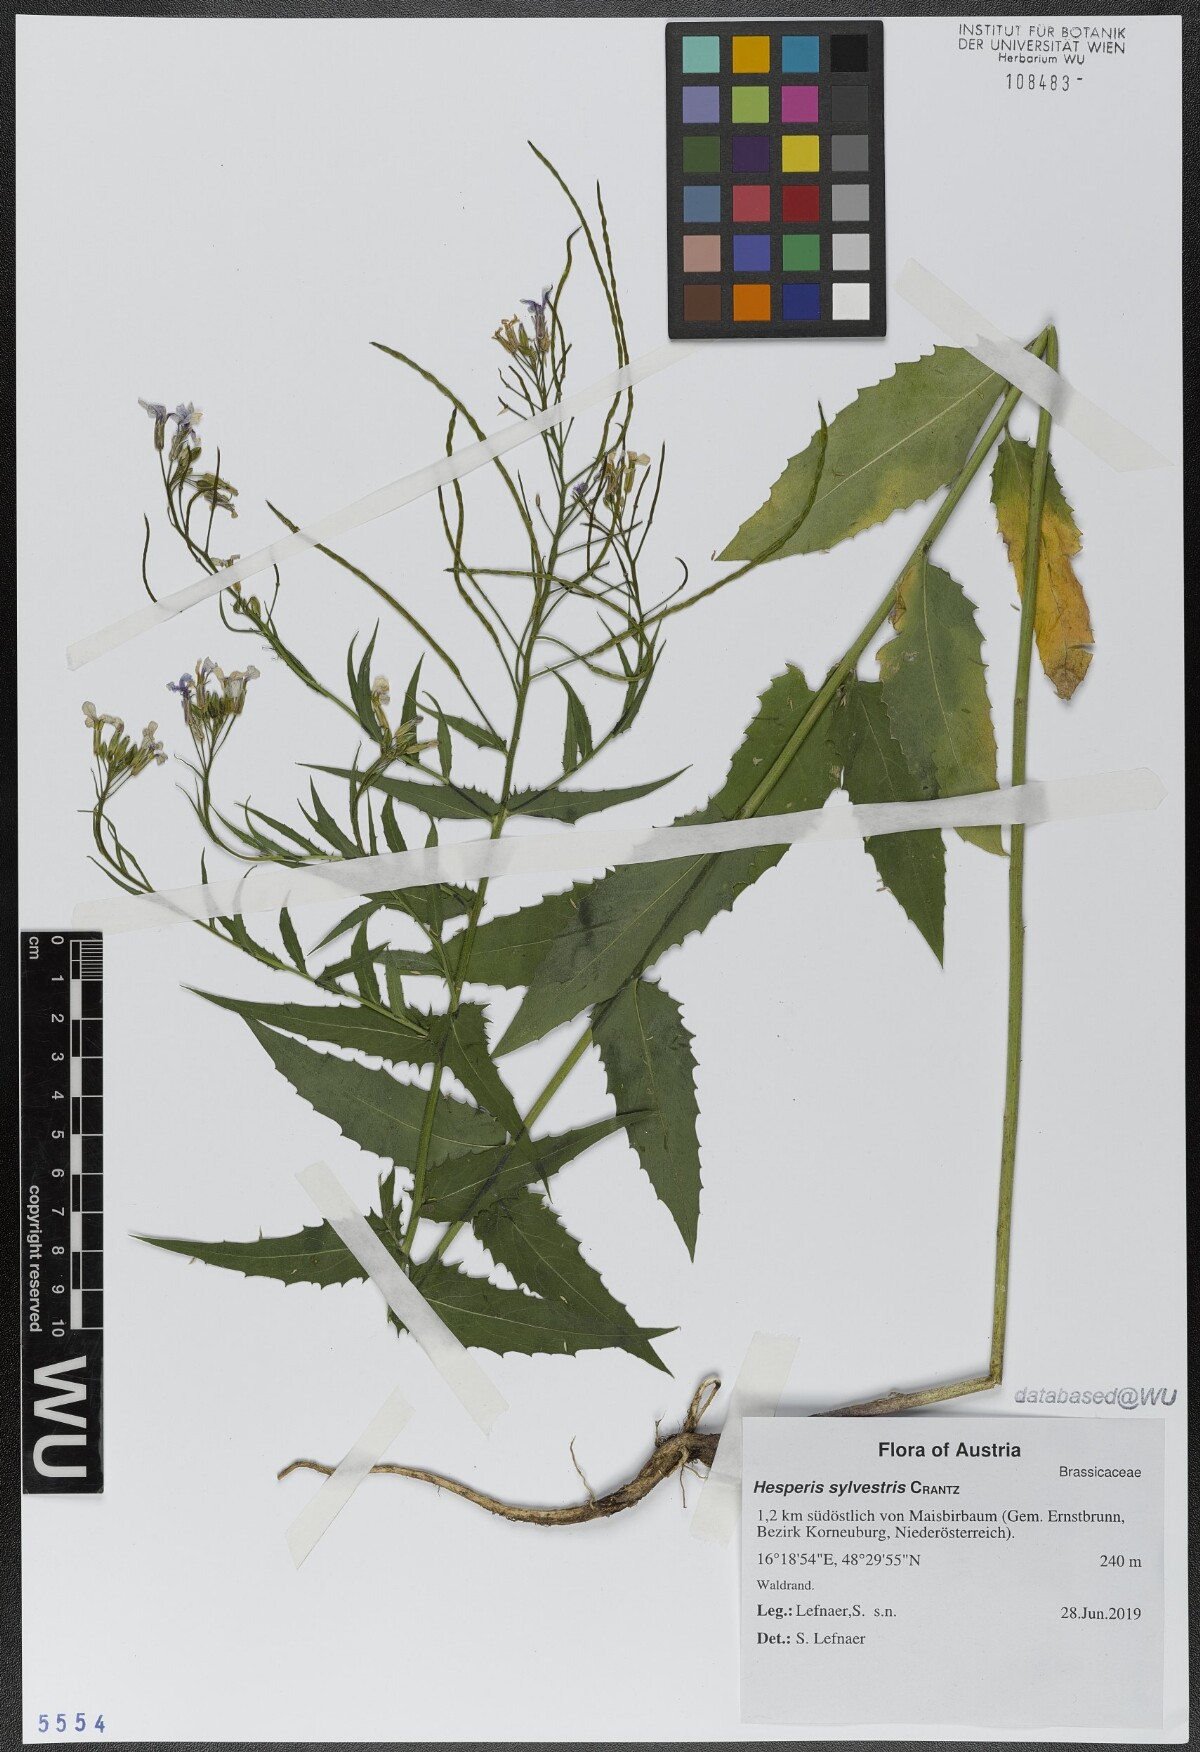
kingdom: Plantae
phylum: Tracheophyta
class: Magnoliopsida
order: Brassicales
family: Brassicaceae
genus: Hesperis
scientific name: Hesperis sylvestris
